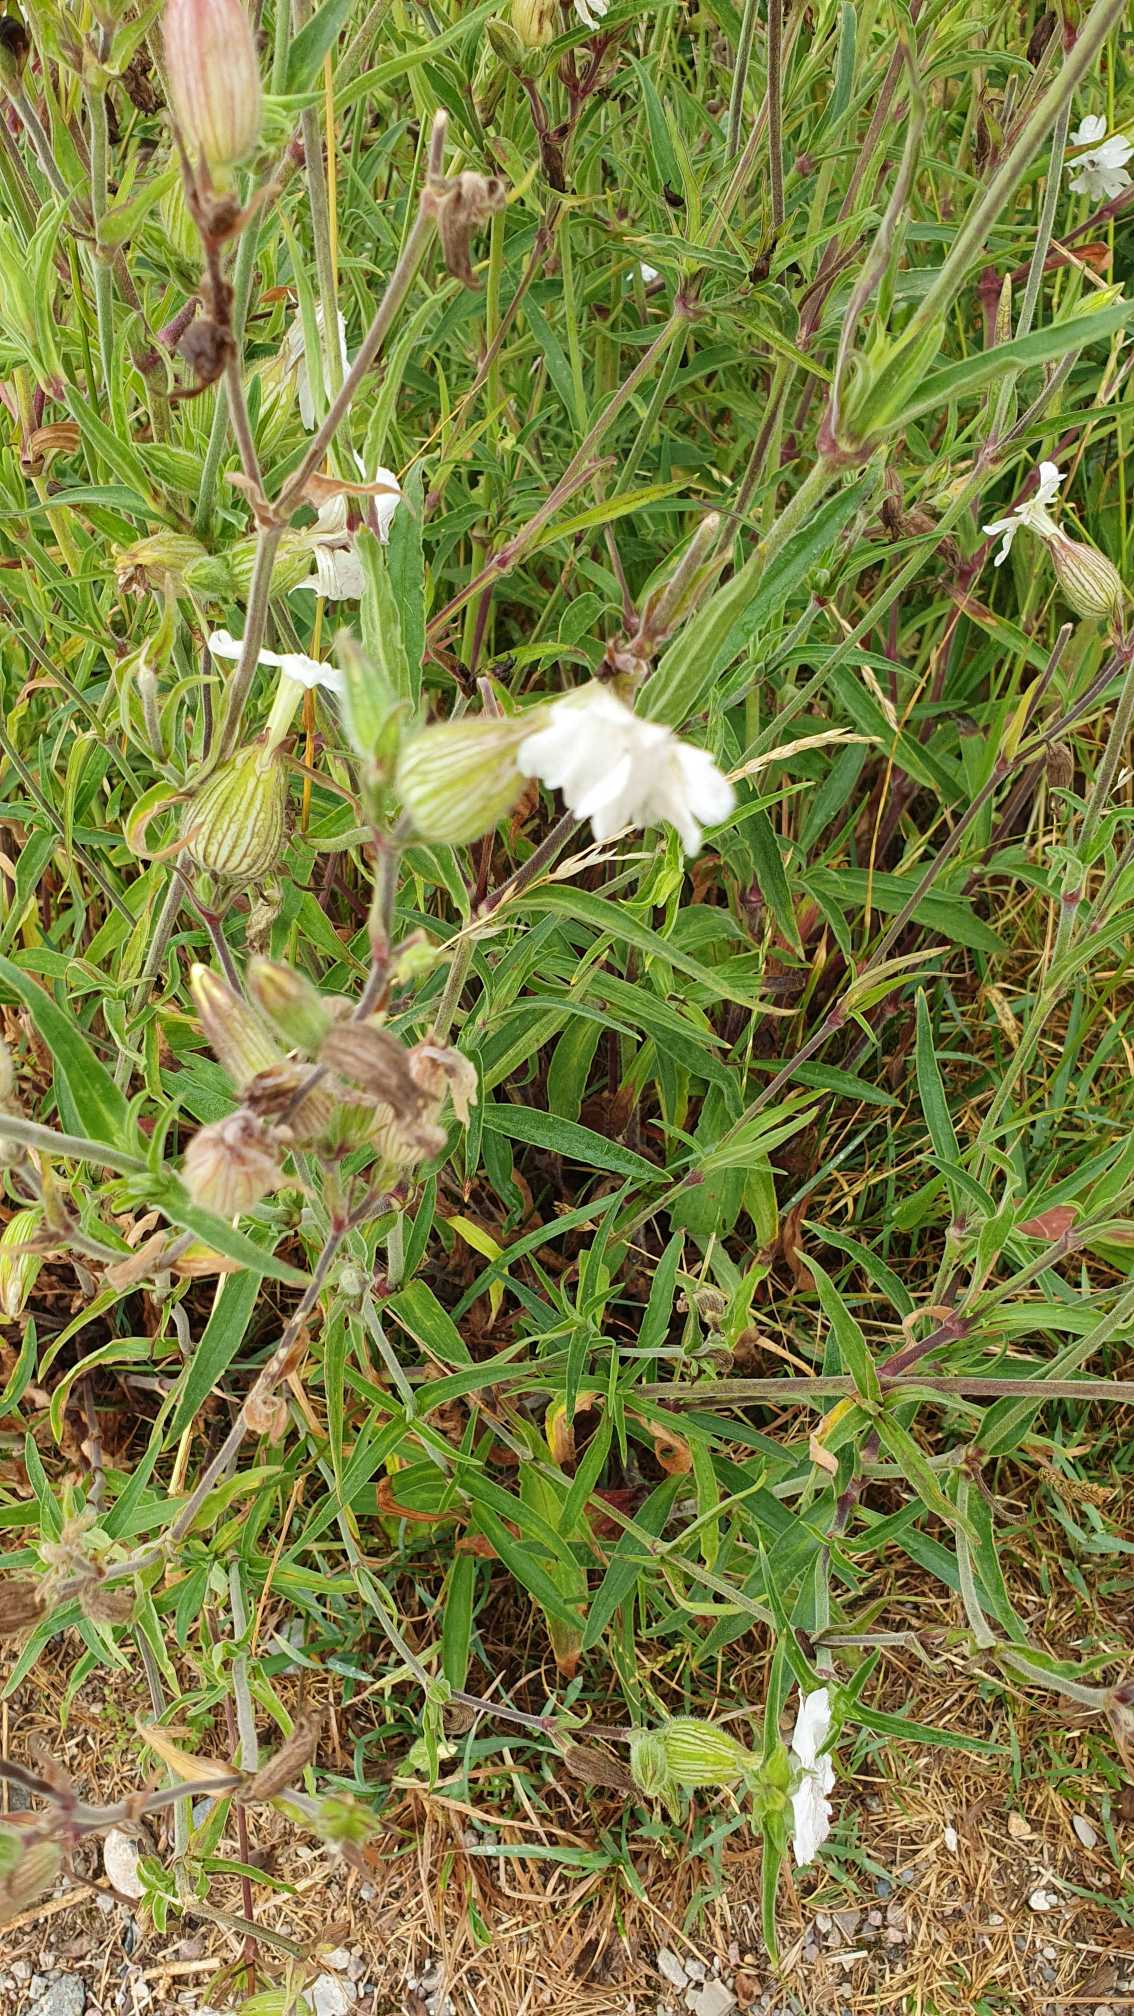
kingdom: Plantae
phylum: Tracheophyta
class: Magnoliopsida
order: Caryophyllales
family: Caryophyllaceae
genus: Silene
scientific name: Silene latifolia
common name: Aftenpragtstjerne
